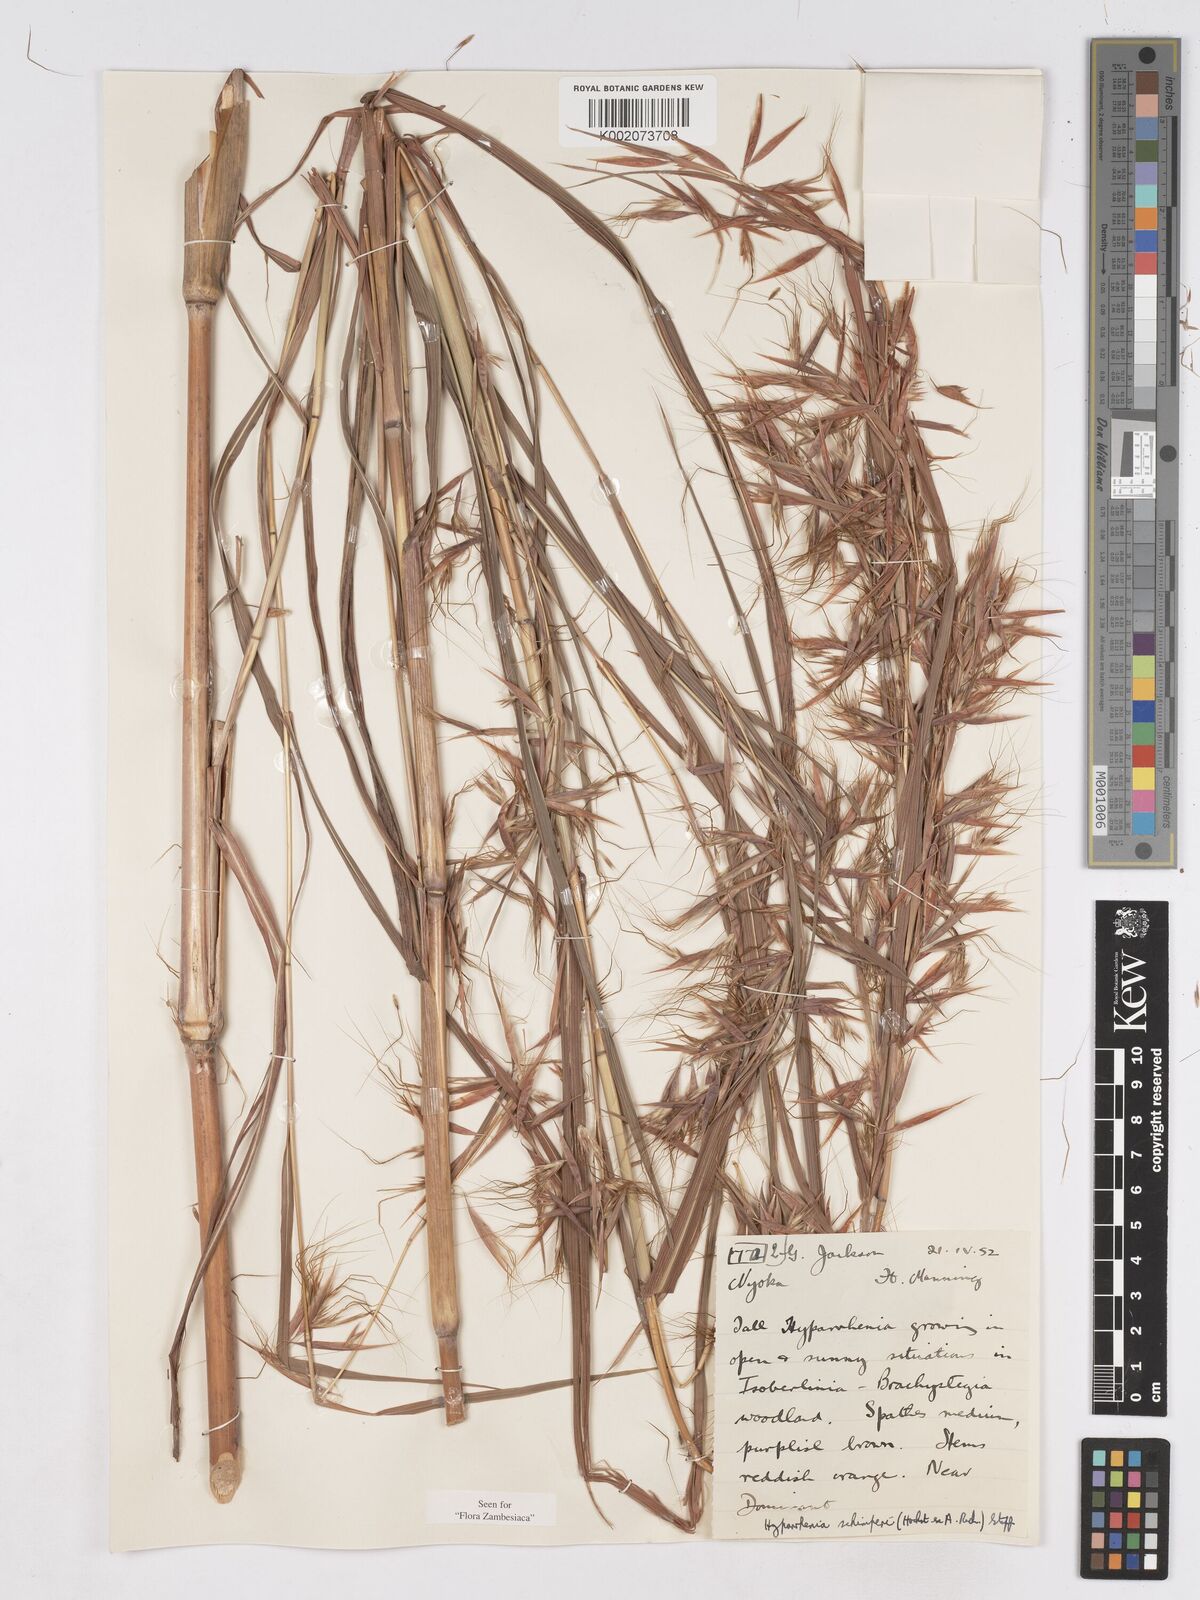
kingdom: Plantae
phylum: Tracheophyta
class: Liliopsida
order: Poales
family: Poaceae
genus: Hyparrhenia
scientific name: Hyparrhenia schimperi
